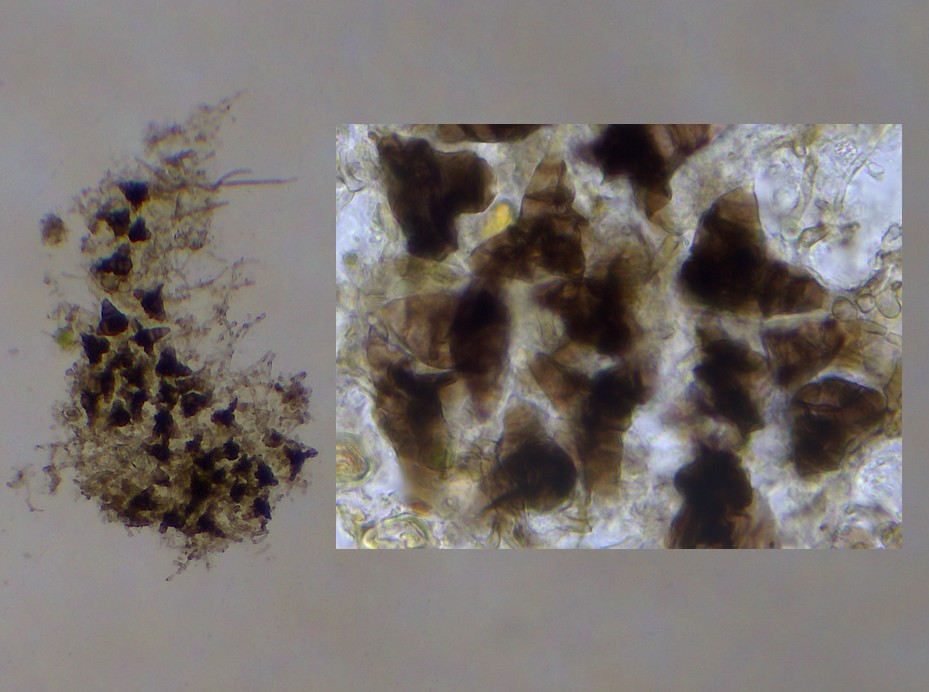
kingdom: Fungi
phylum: Ascomycota
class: Sordariomycetes
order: Diaporthales
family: Asterosporiaceae
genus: Asterosporium
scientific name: Asterosporium asterospermum
